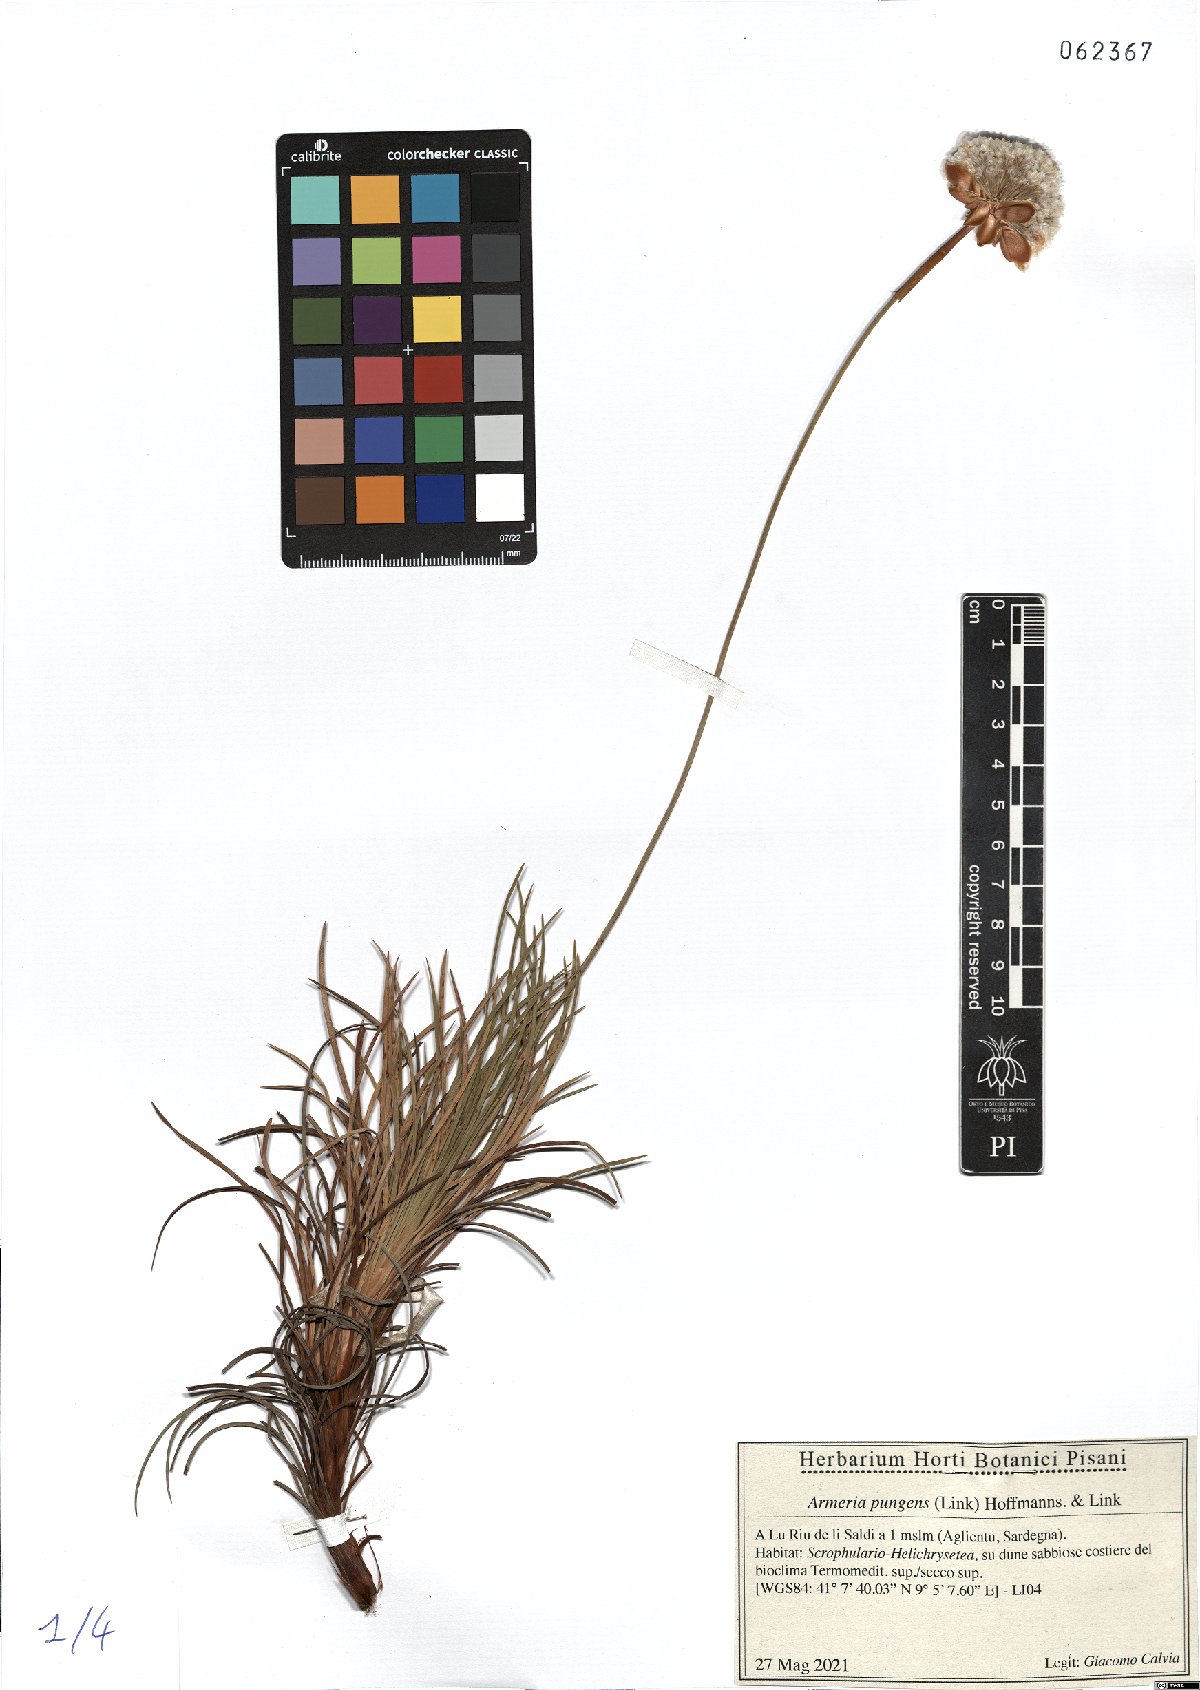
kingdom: Plantae
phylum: Tracheophyta
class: Magnoliopsida
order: Caryophyllales
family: Plumbaginaceae
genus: Armeria
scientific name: Armeria pungens
